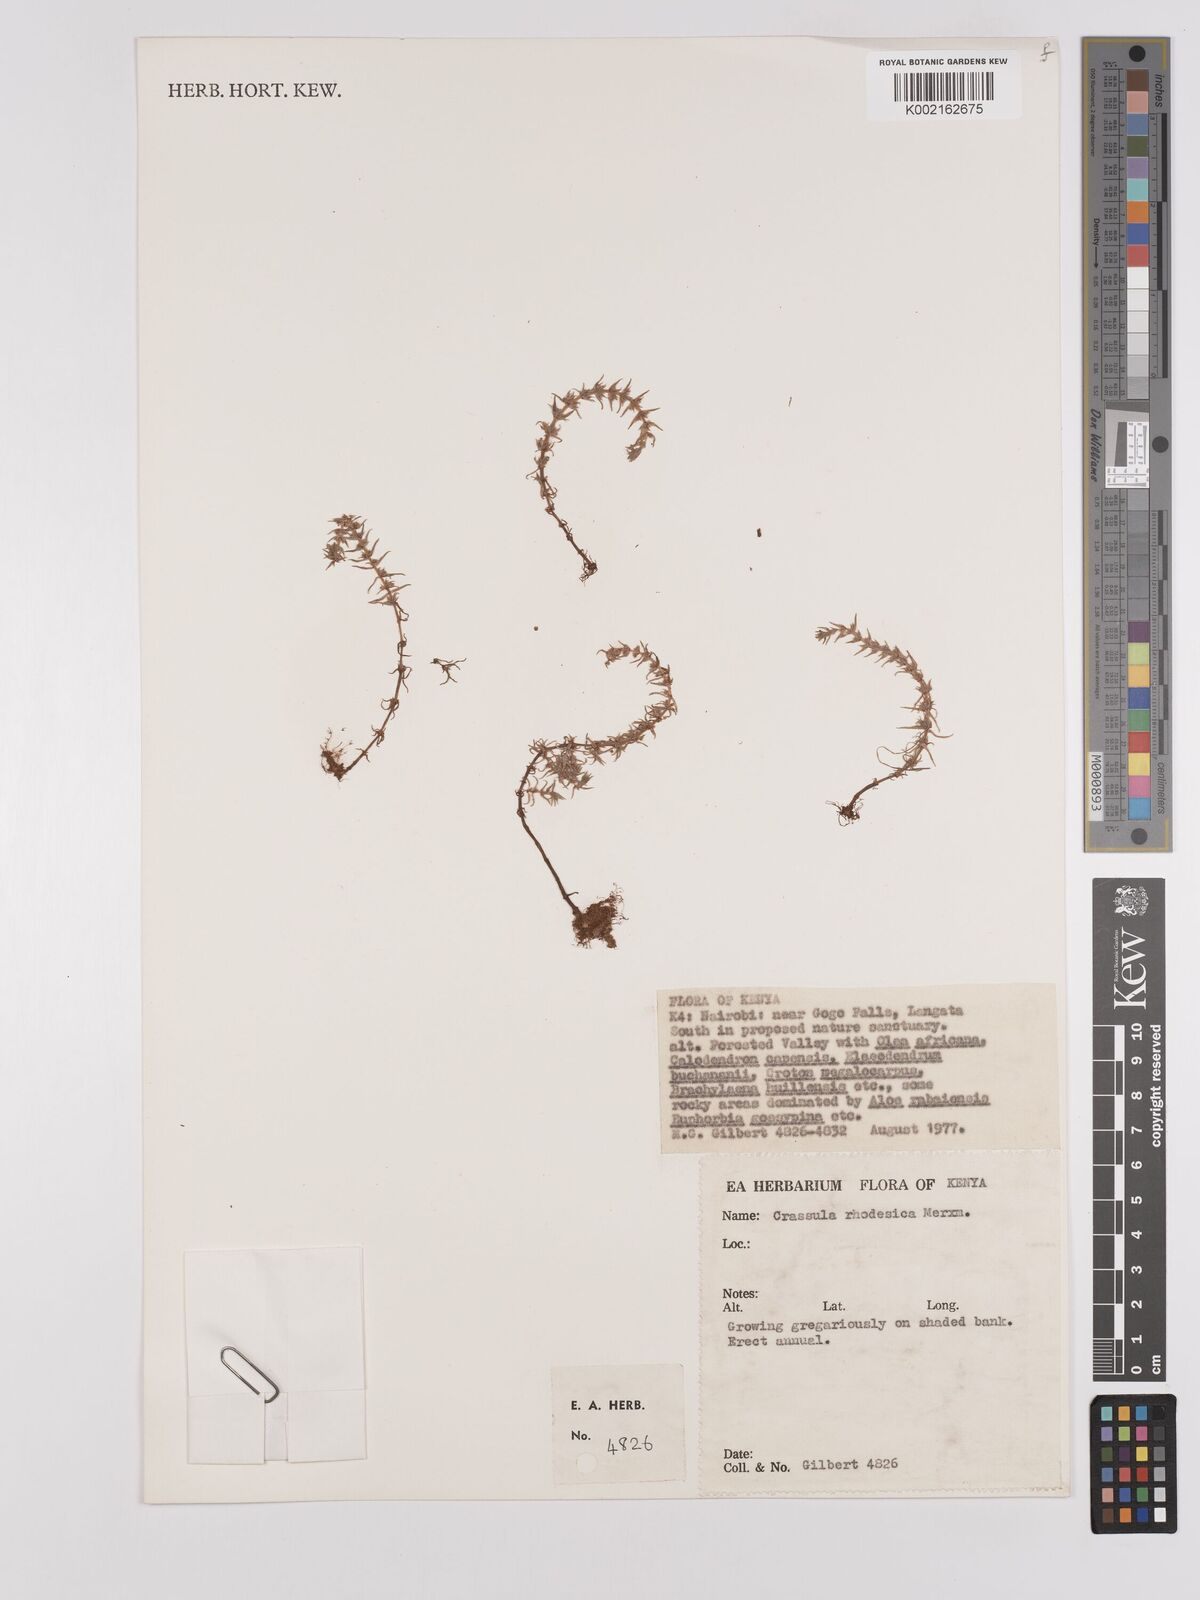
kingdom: Plantae
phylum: Tracheophyta
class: Magnoliopsida
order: Saxifragales
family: Crassulaceae
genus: Crassula
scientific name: Crassula rhodesica
